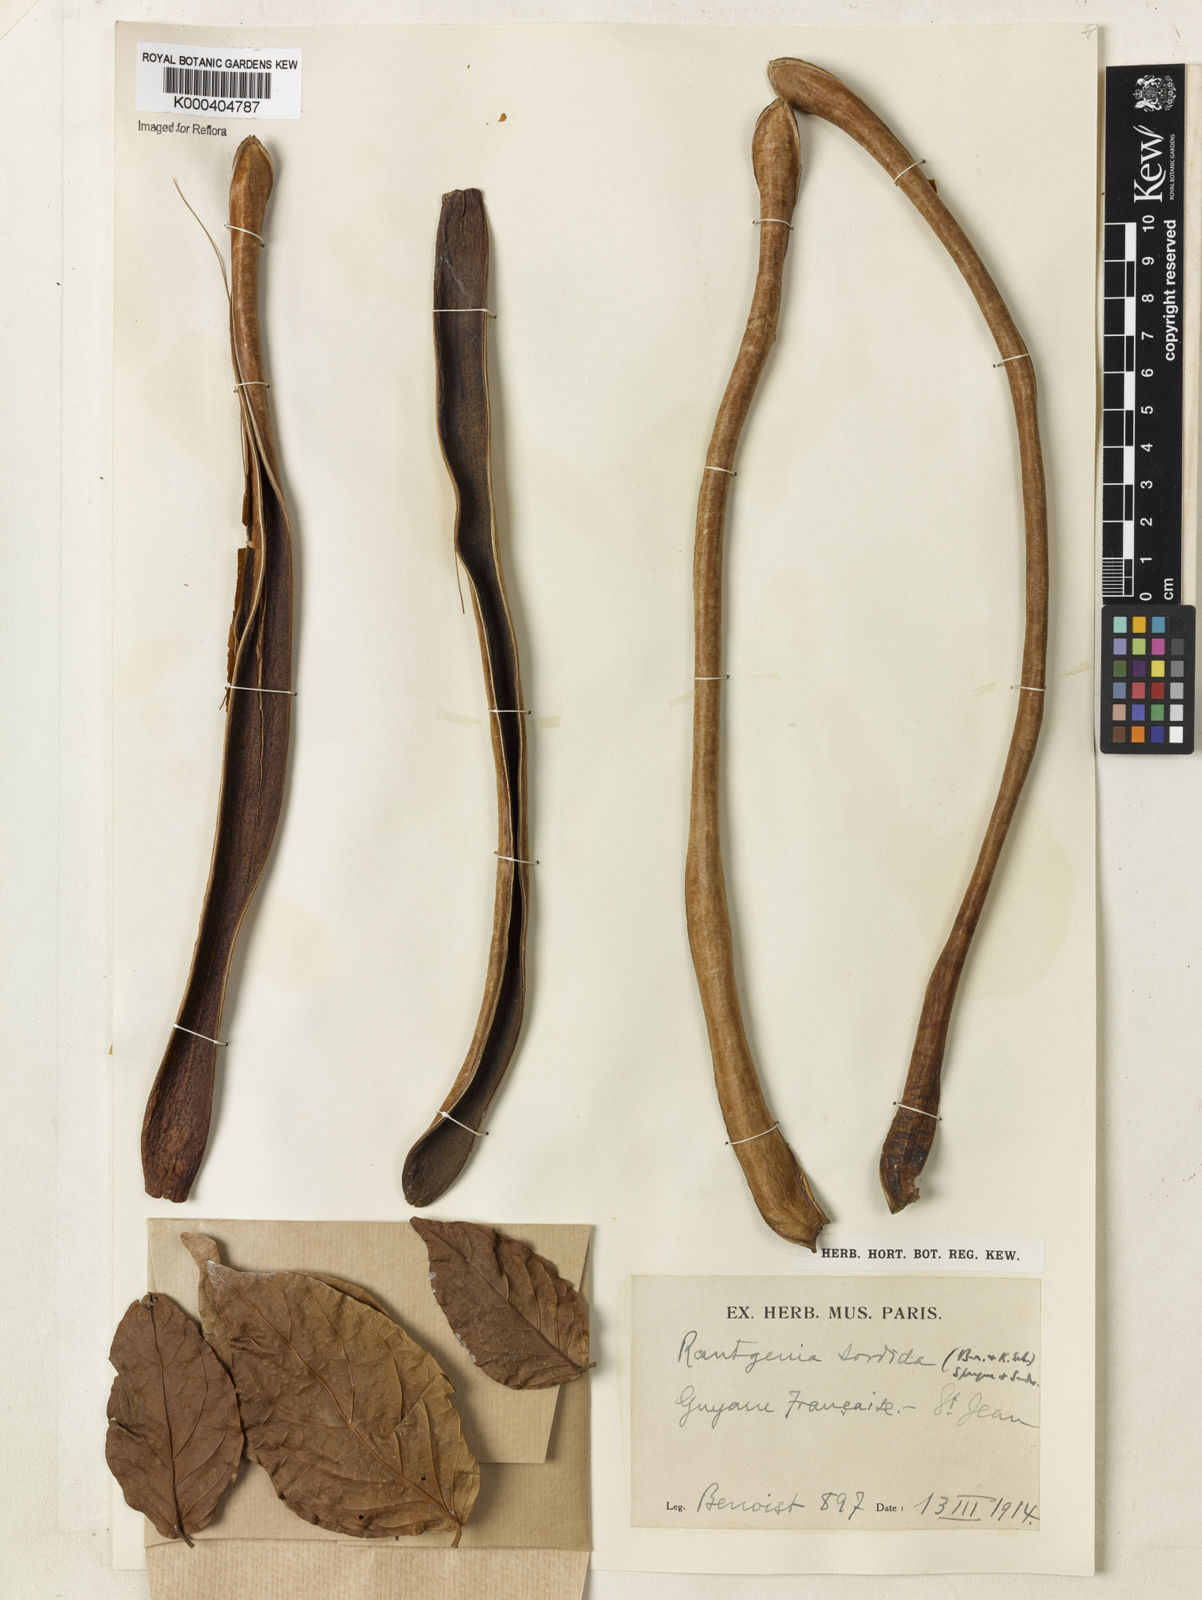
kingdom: Plantae
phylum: Tracheophyta
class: Magnoliopsida
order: Lamiales
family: Bignoniaceae
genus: Bignonia
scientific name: Bignonia sordida
